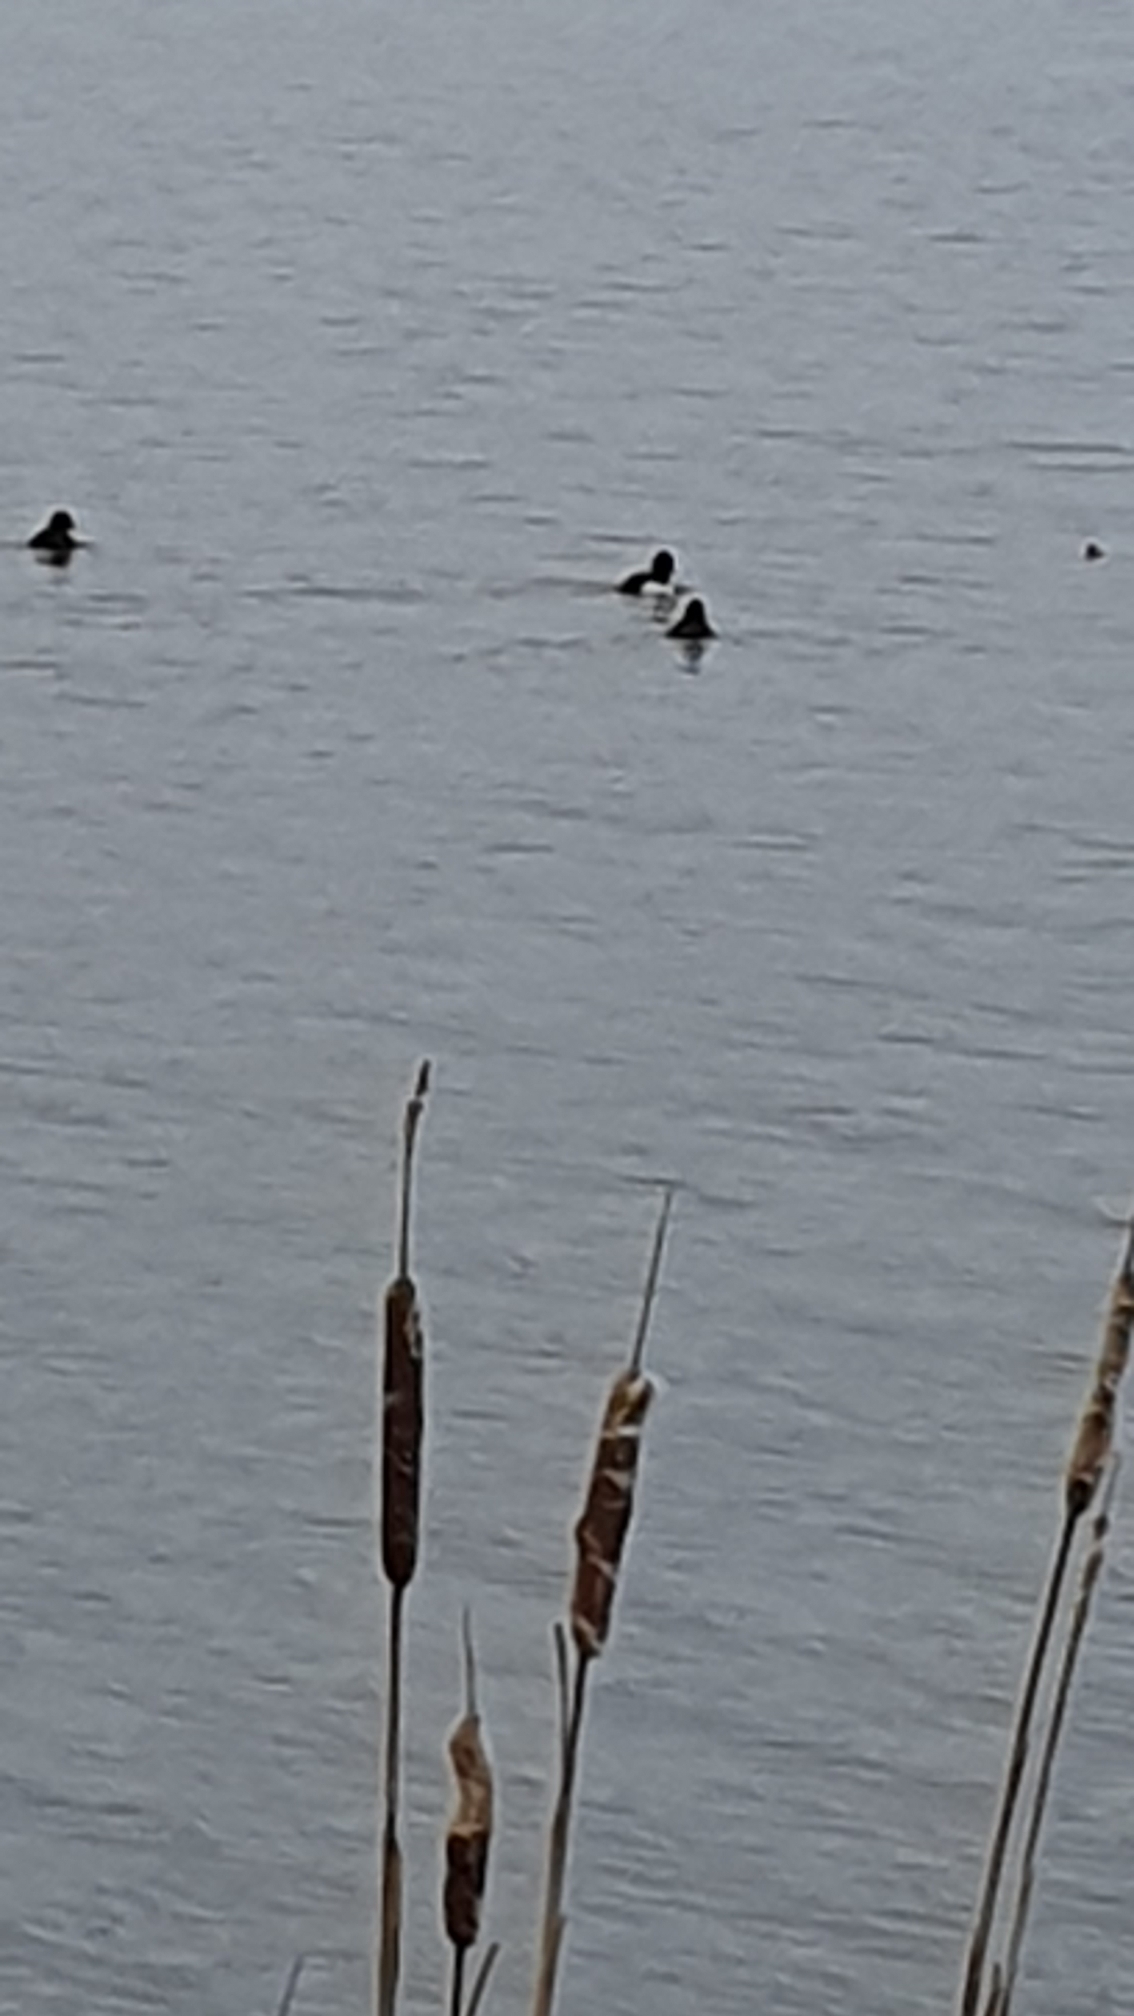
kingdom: Animalia
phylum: Chordata
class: Aves
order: Anseriformes
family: Anatidae
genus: Aythya
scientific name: Aythya fuligula
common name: Troldand
